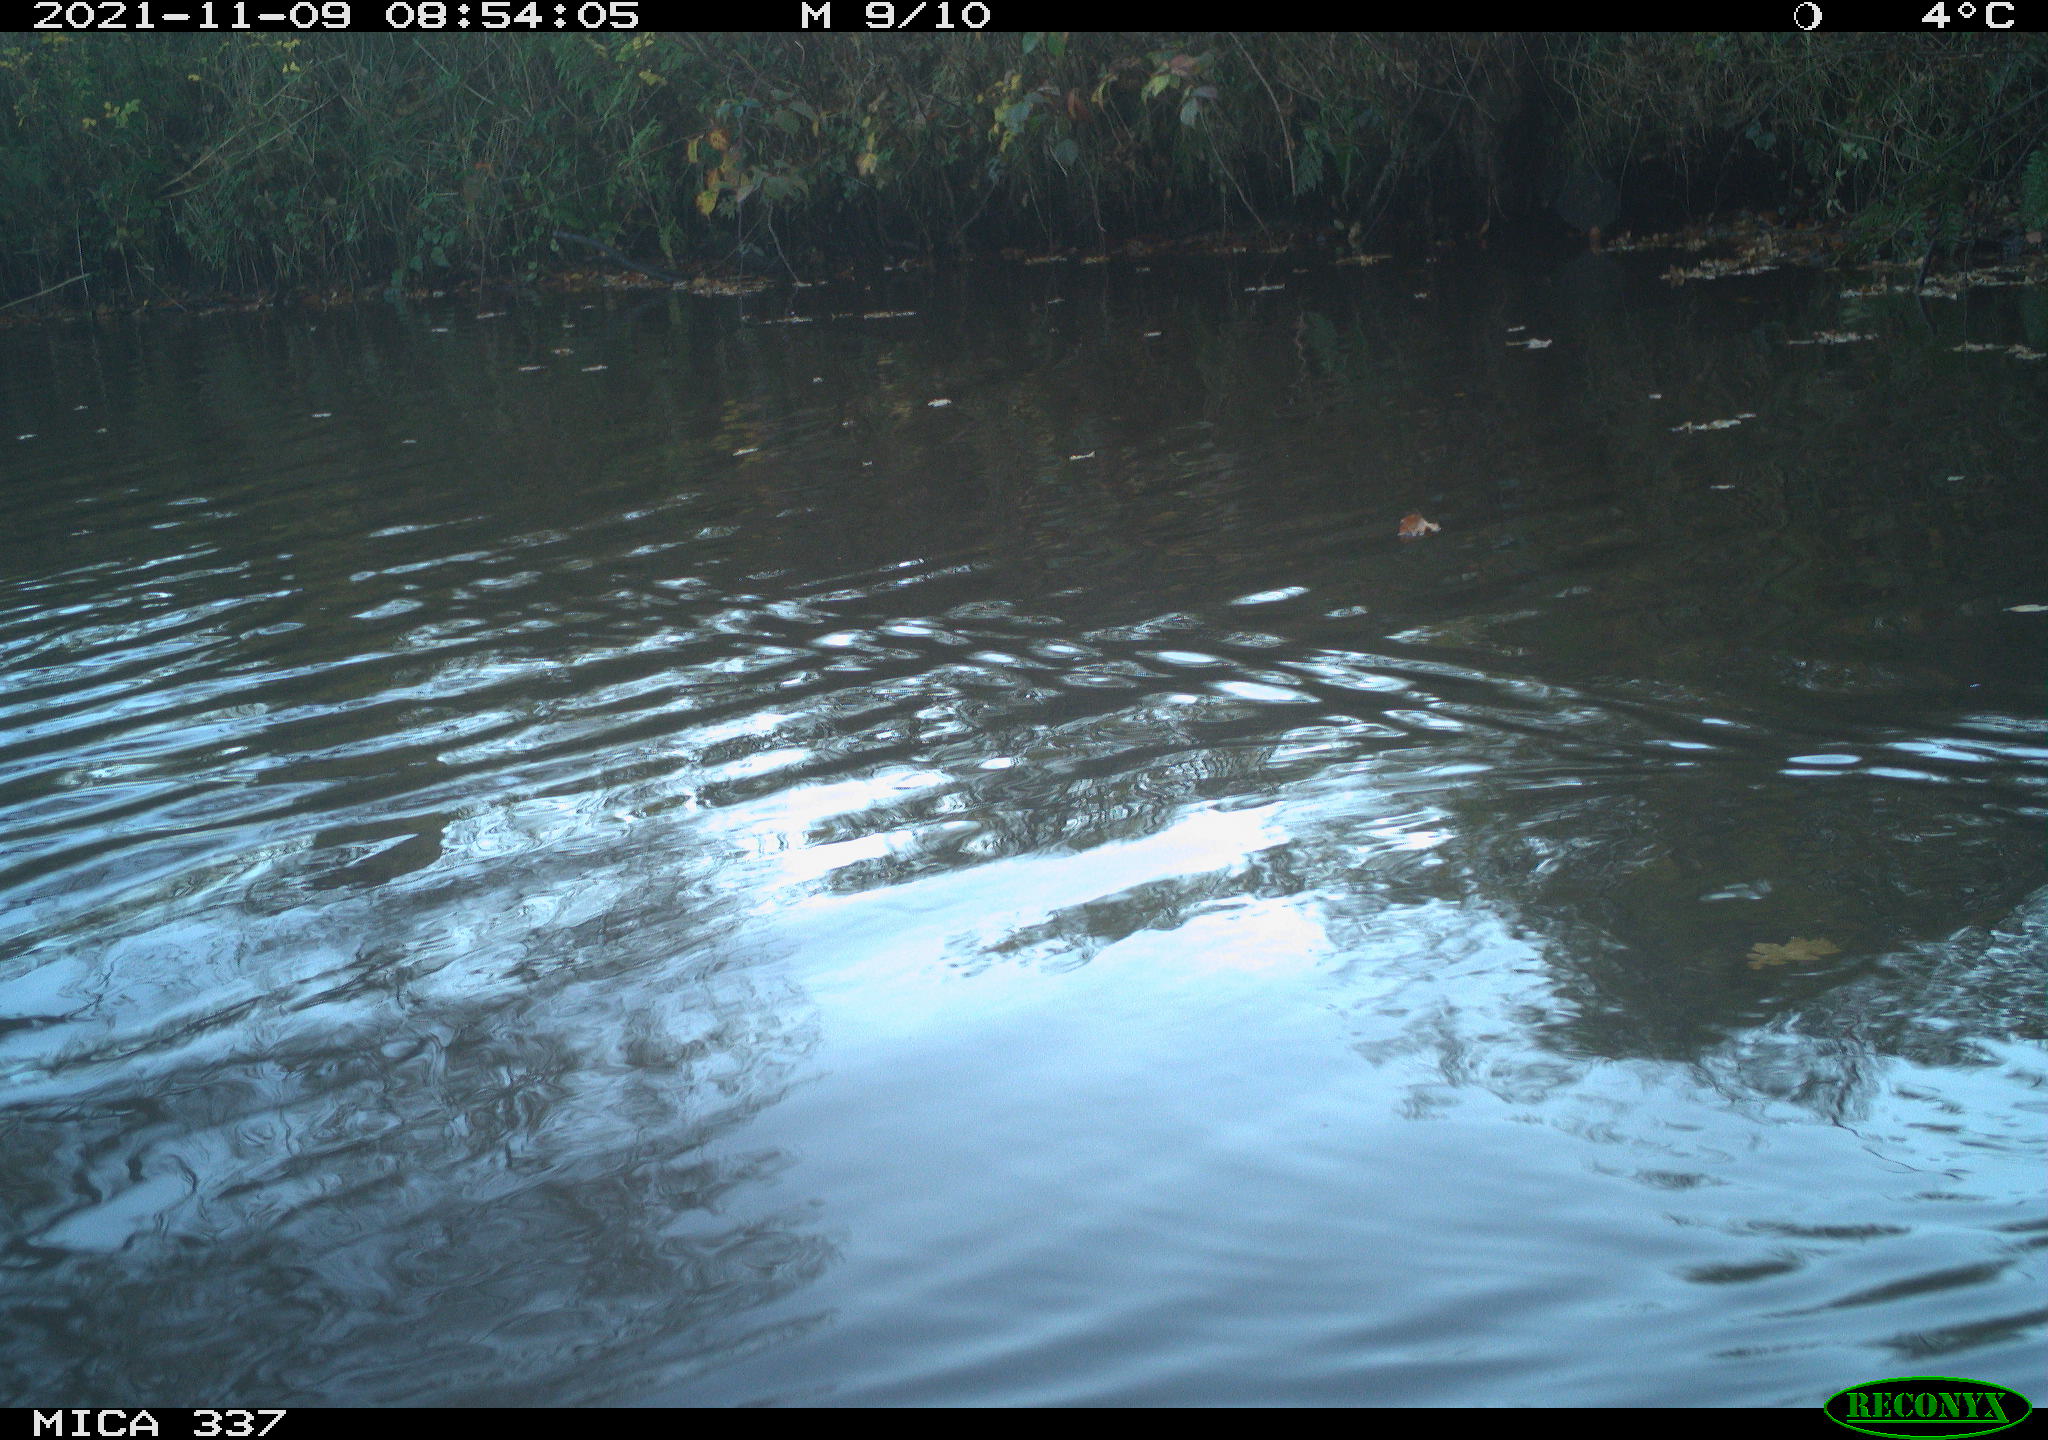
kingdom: Animalia
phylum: Chordata
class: Aves
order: Anseriformes
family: Anatidae
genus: Anas
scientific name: Anas platyrhynchos
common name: Mallard
